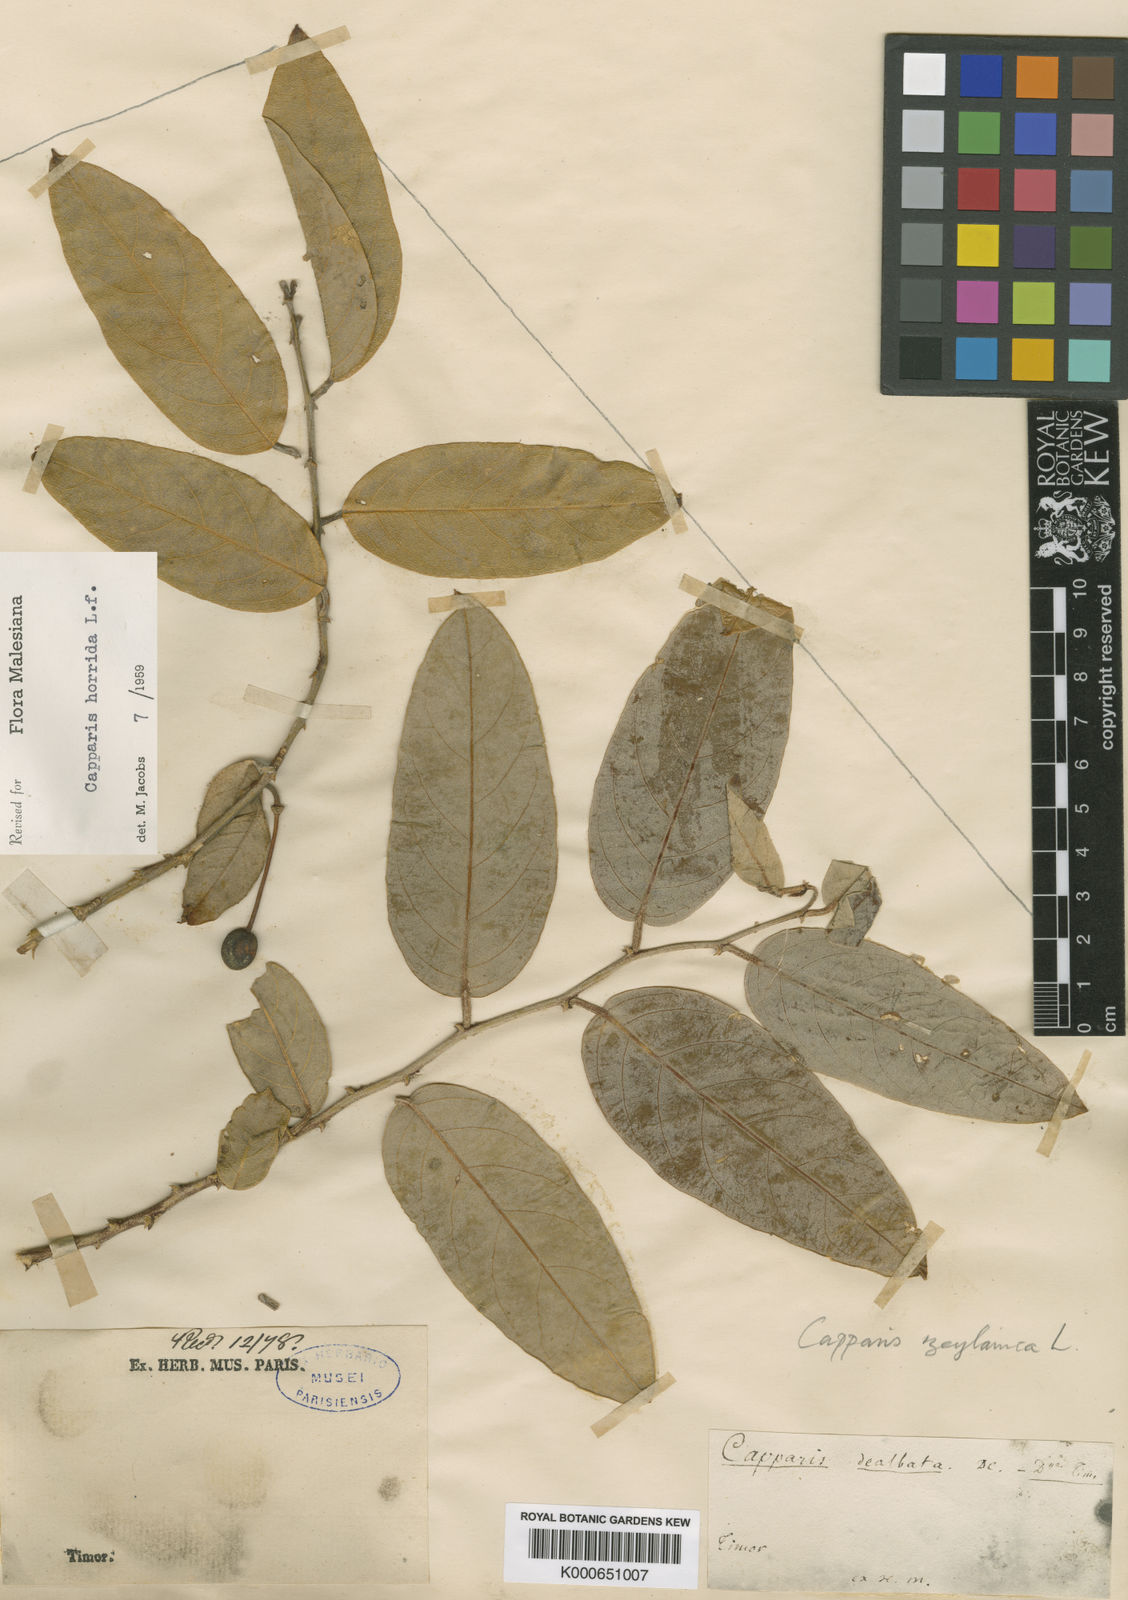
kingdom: Plantae
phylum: Tracheophyta
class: Magnoliopsida
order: Brassicales
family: Capparaceae
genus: Capparis
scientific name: Capparis zeylanica
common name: Ceylon caper
